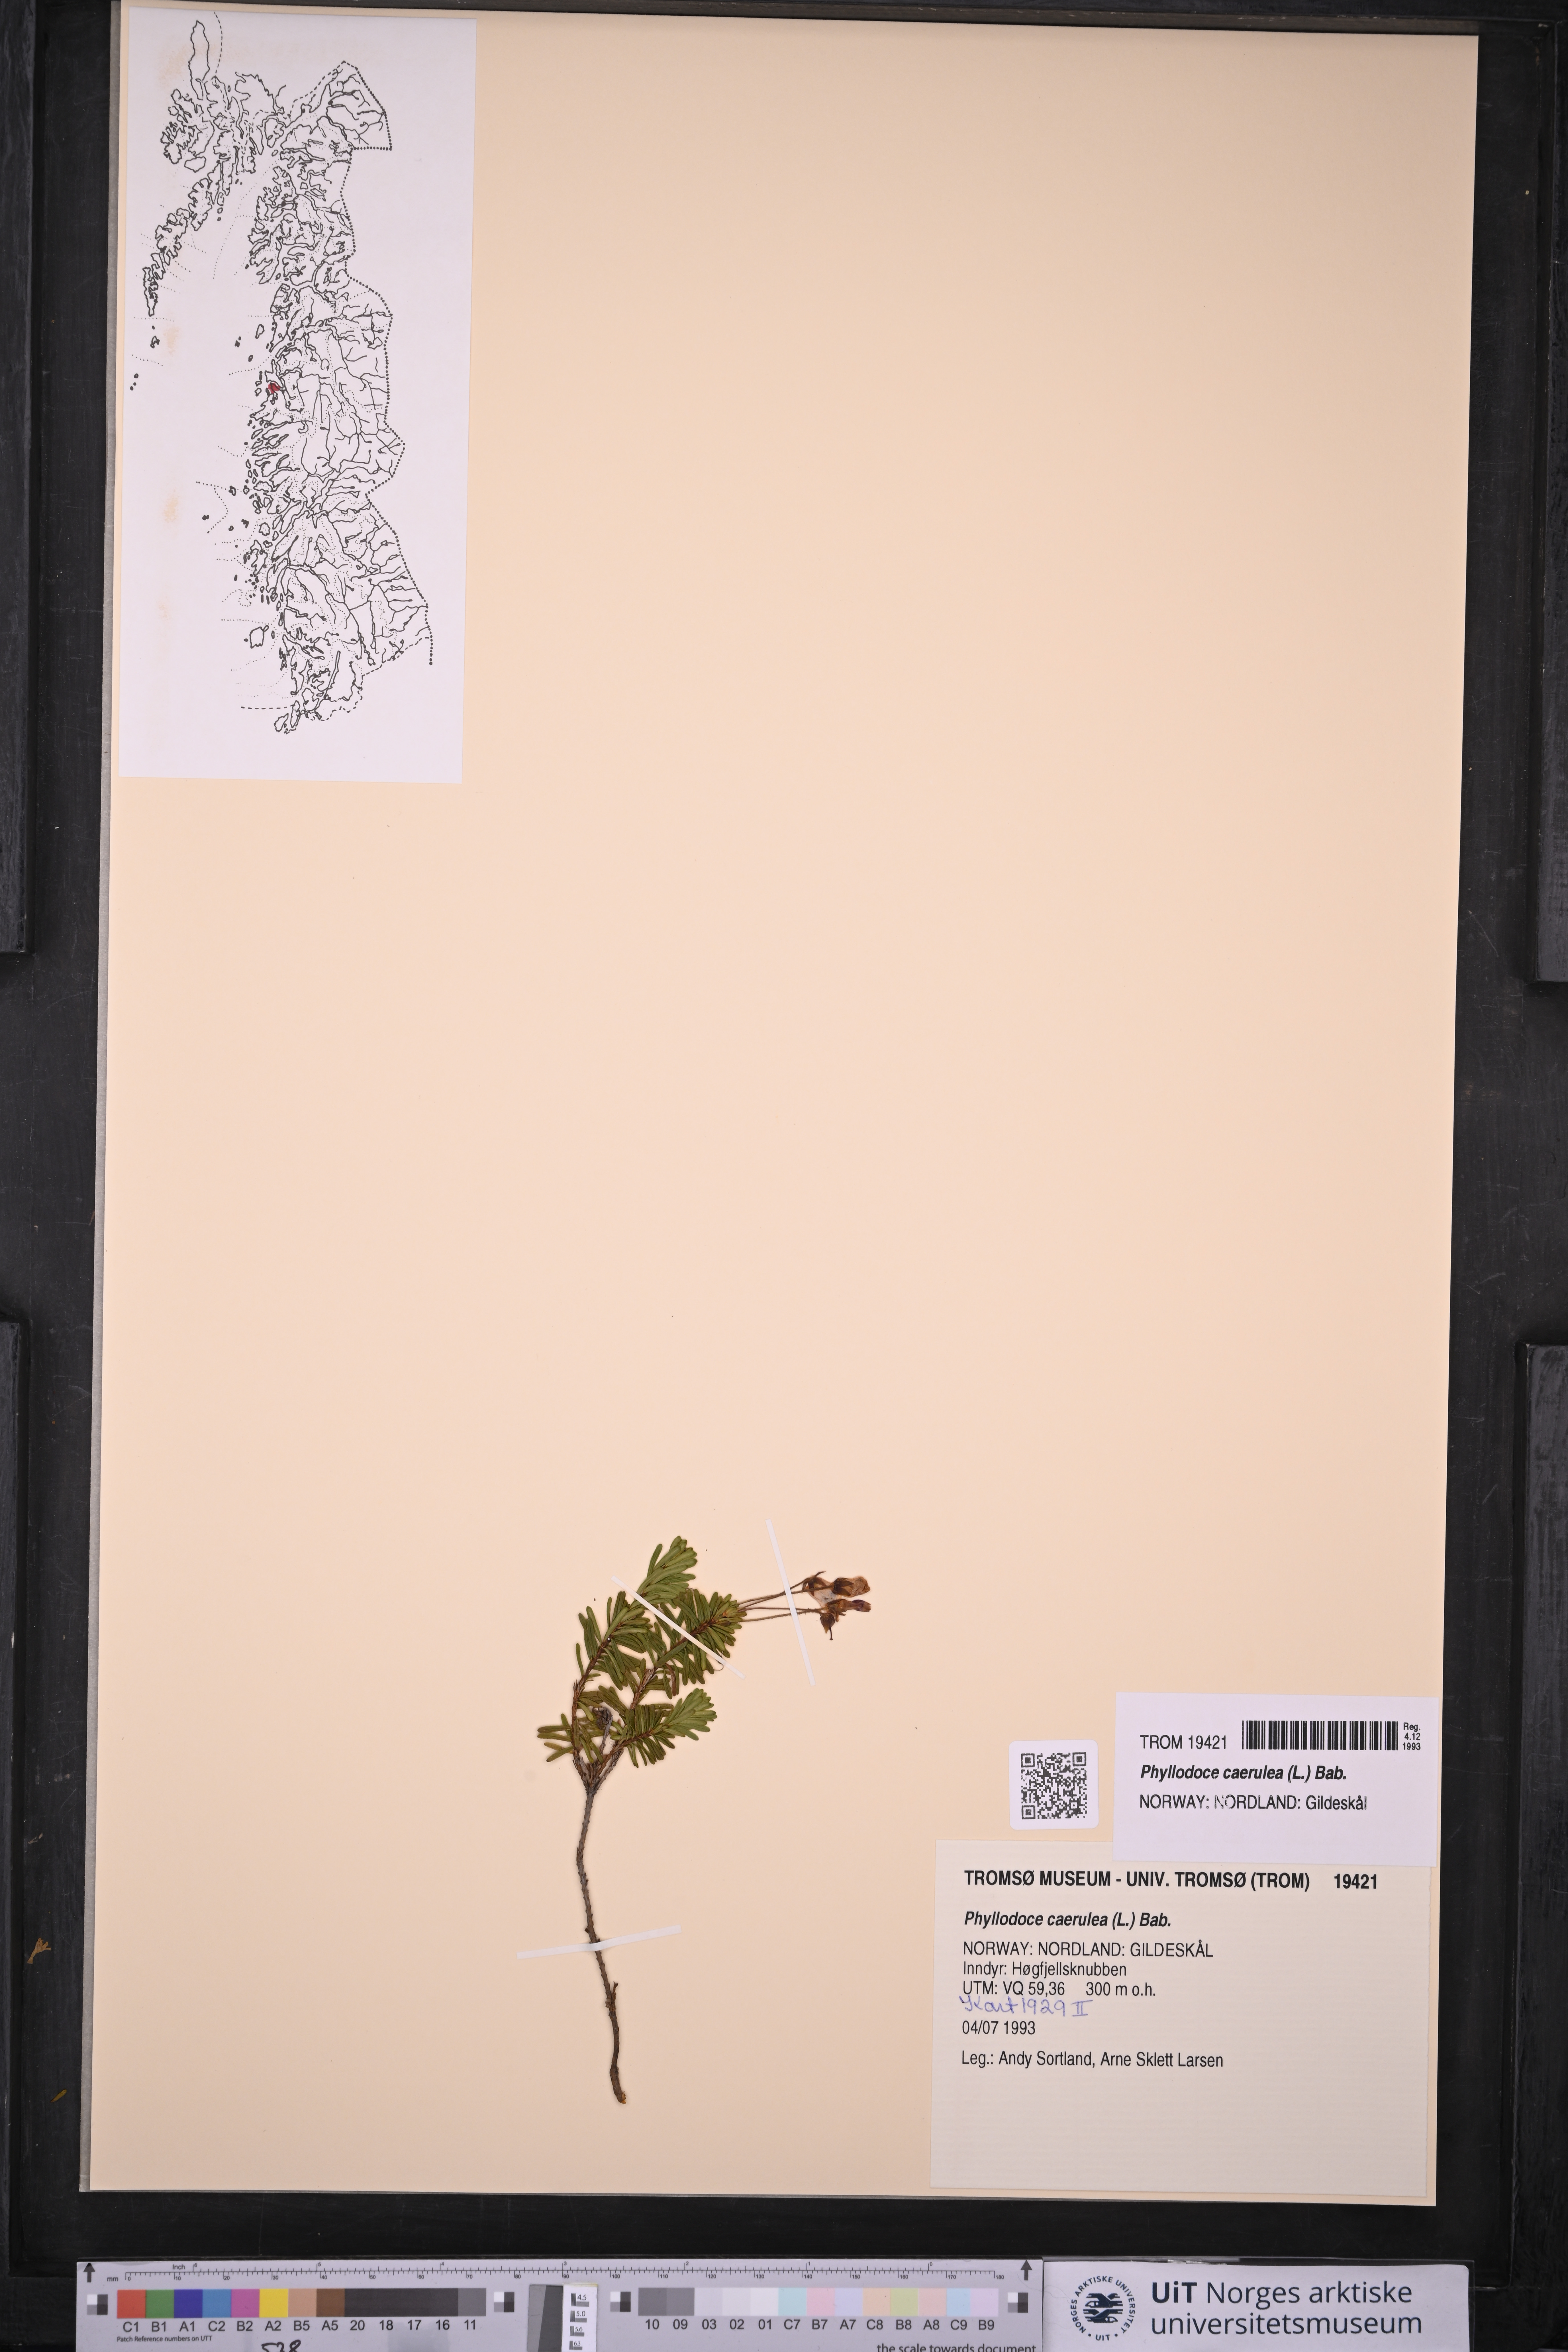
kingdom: Plantae
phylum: Tracheophyta
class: Magnoliopsida
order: Ericales
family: Ericaceae
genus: Phyllodoce
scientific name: Phyllodoce caerulea
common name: Blue heath
